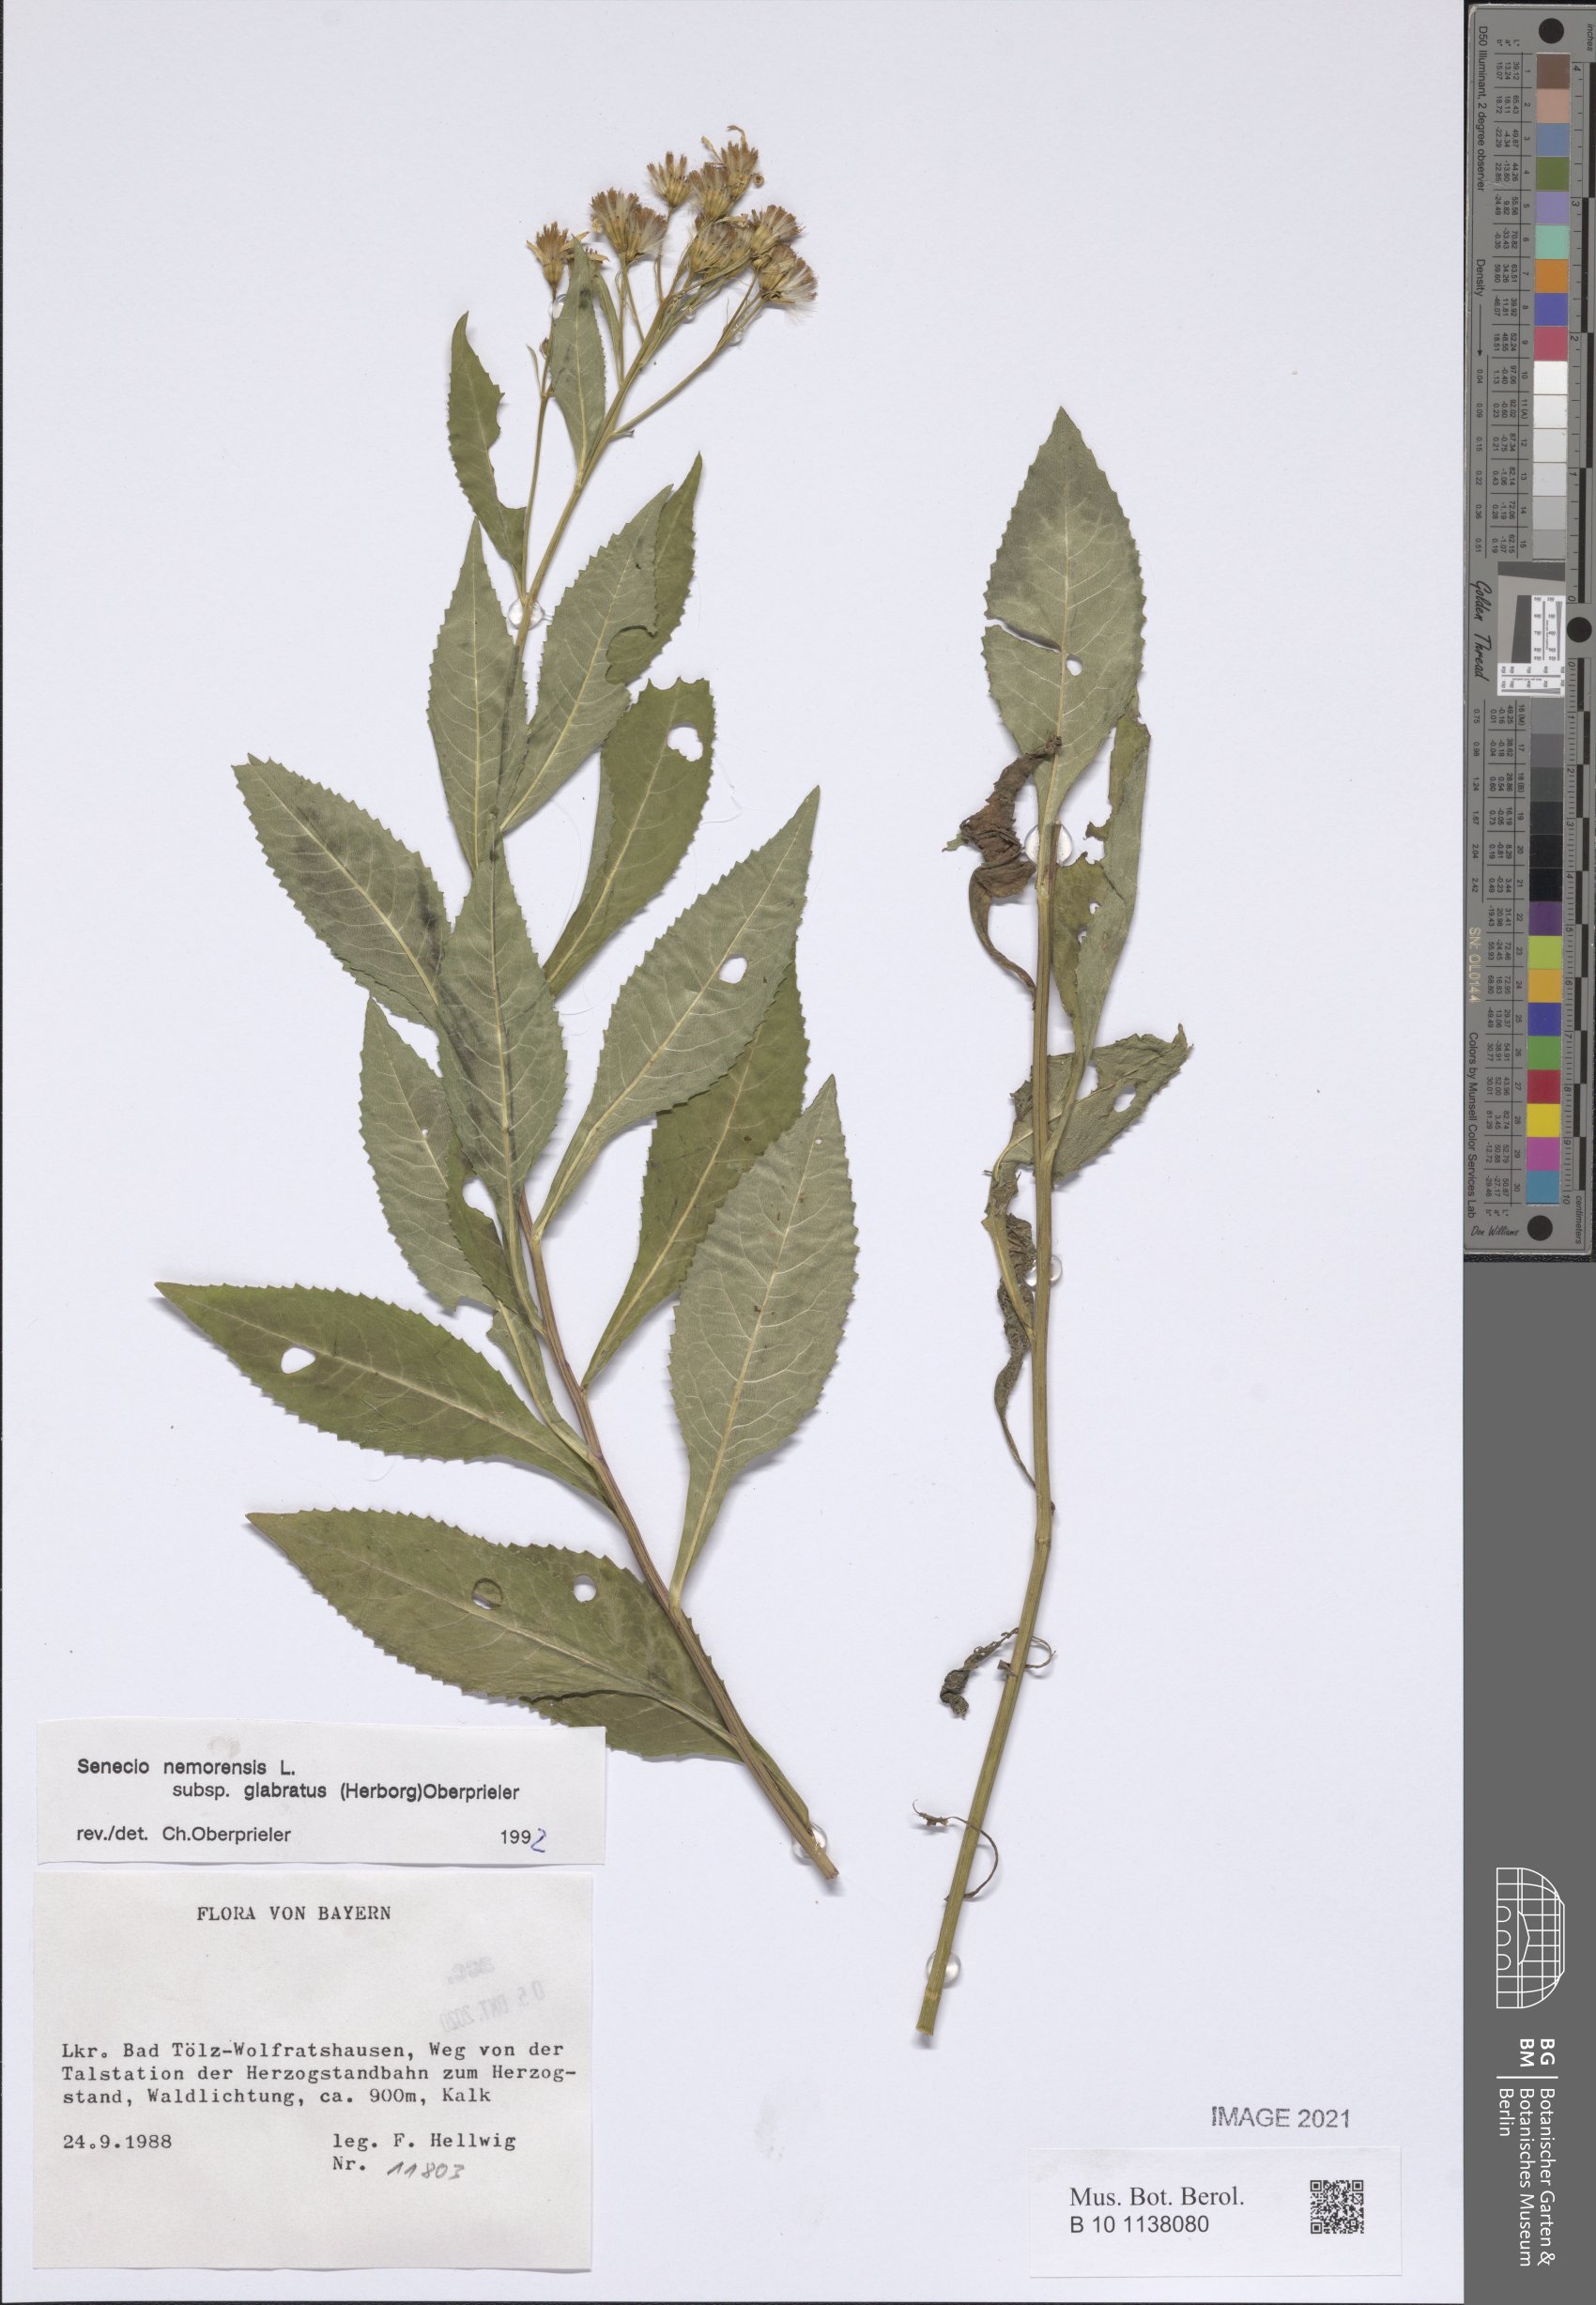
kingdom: Plantae
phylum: Tracheophyta
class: Magnoliopsida
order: Asterales
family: Asteraceae
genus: Senecio
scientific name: Senecio germanicus
